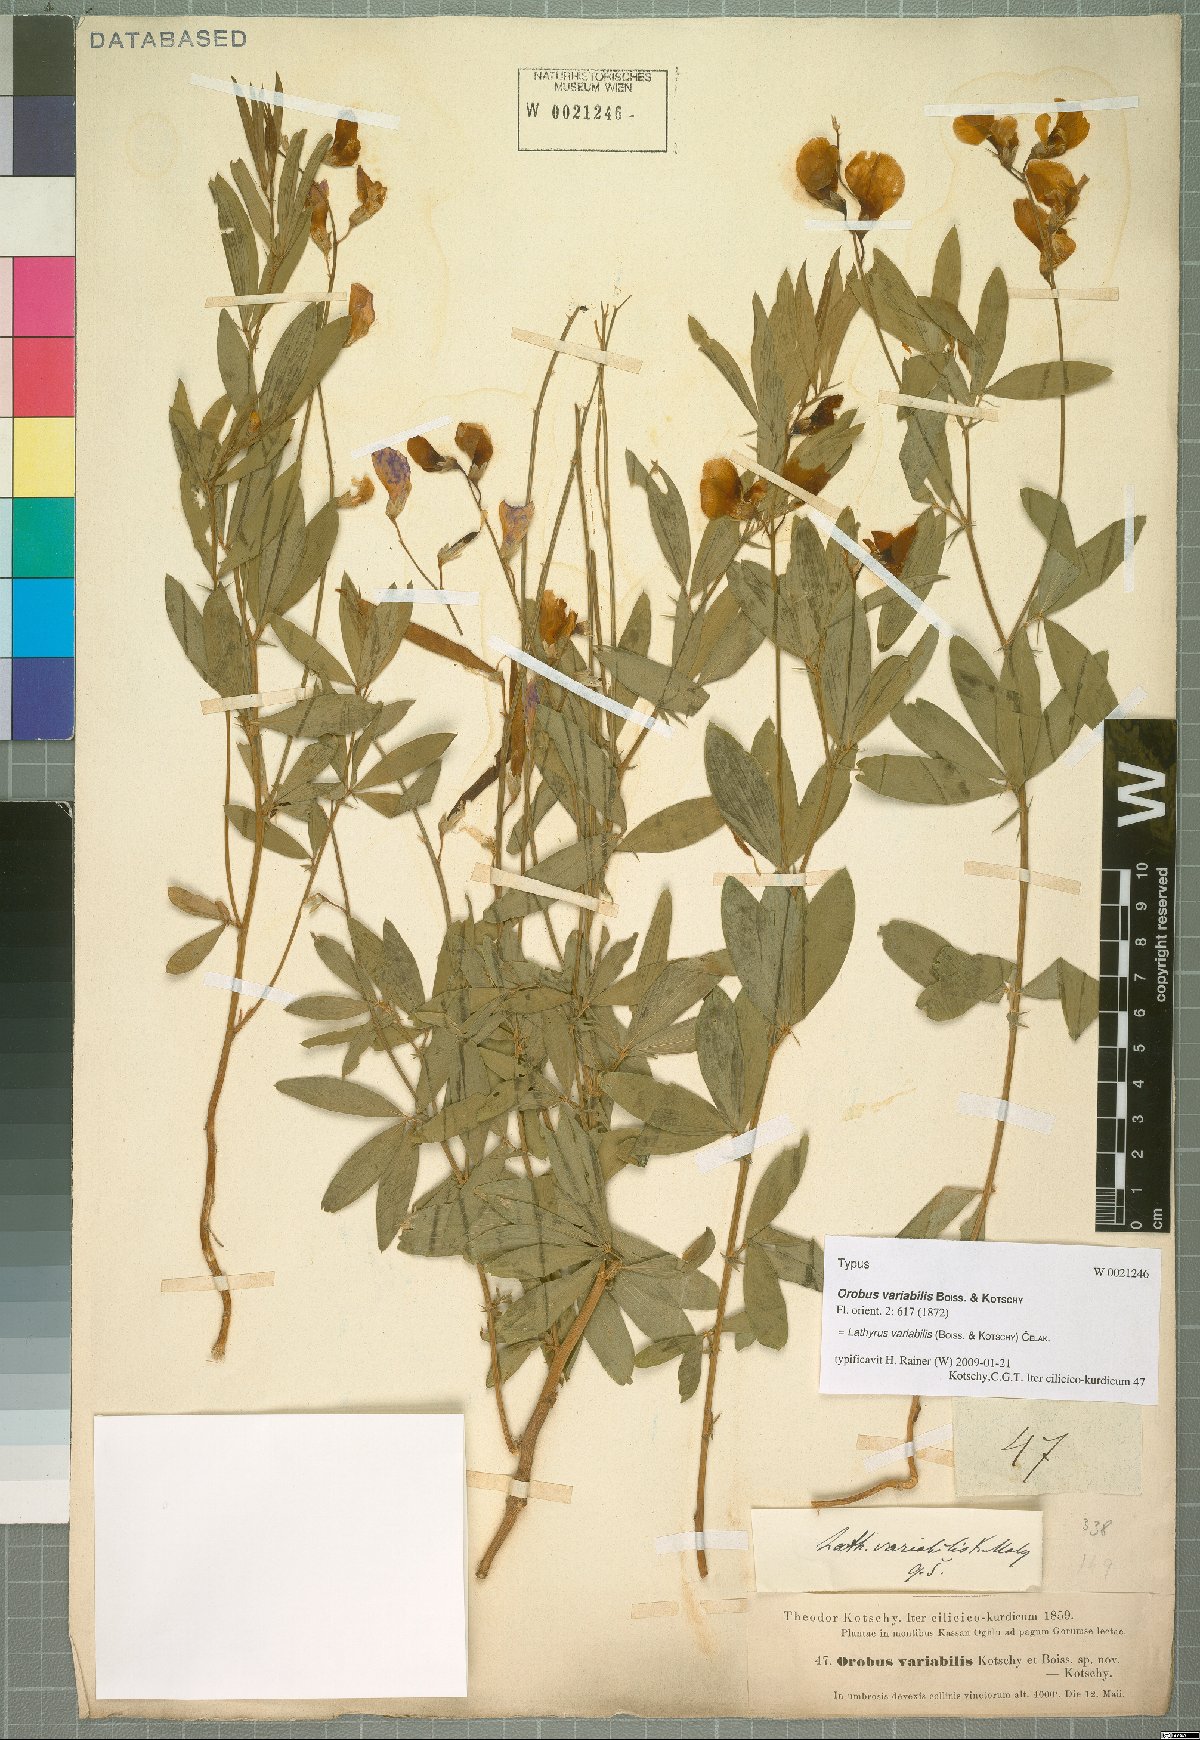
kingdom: Plantae
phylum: Tracheophyta
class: Magnoliopsida
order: Fabales
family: Fabaceae
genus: Lathyrus
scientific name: Lathyrus variabilis
